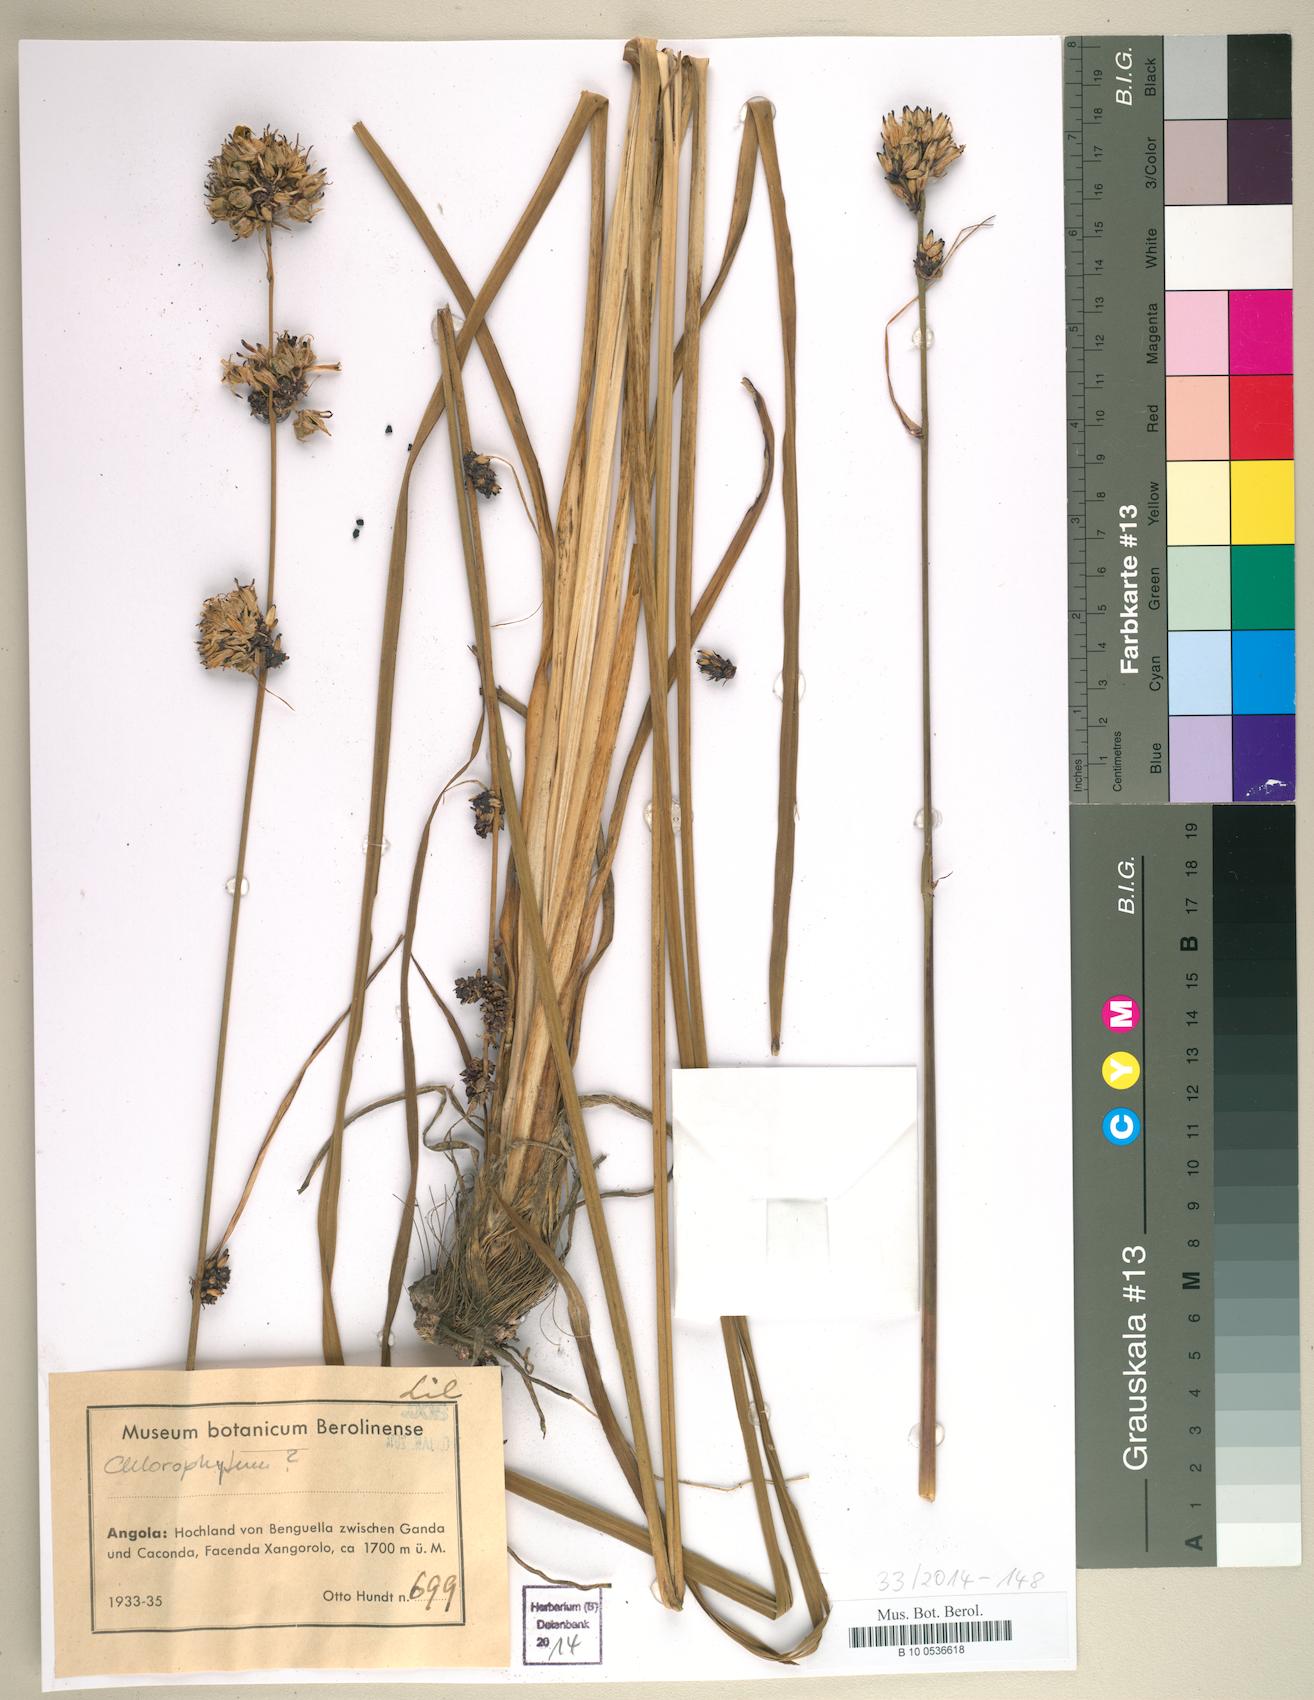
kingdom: Plantae
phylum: Tracheophyta
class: Liliopsida
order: Liliales
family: Liliaceae
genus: Chlorophytum
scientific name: Chlorophytum
